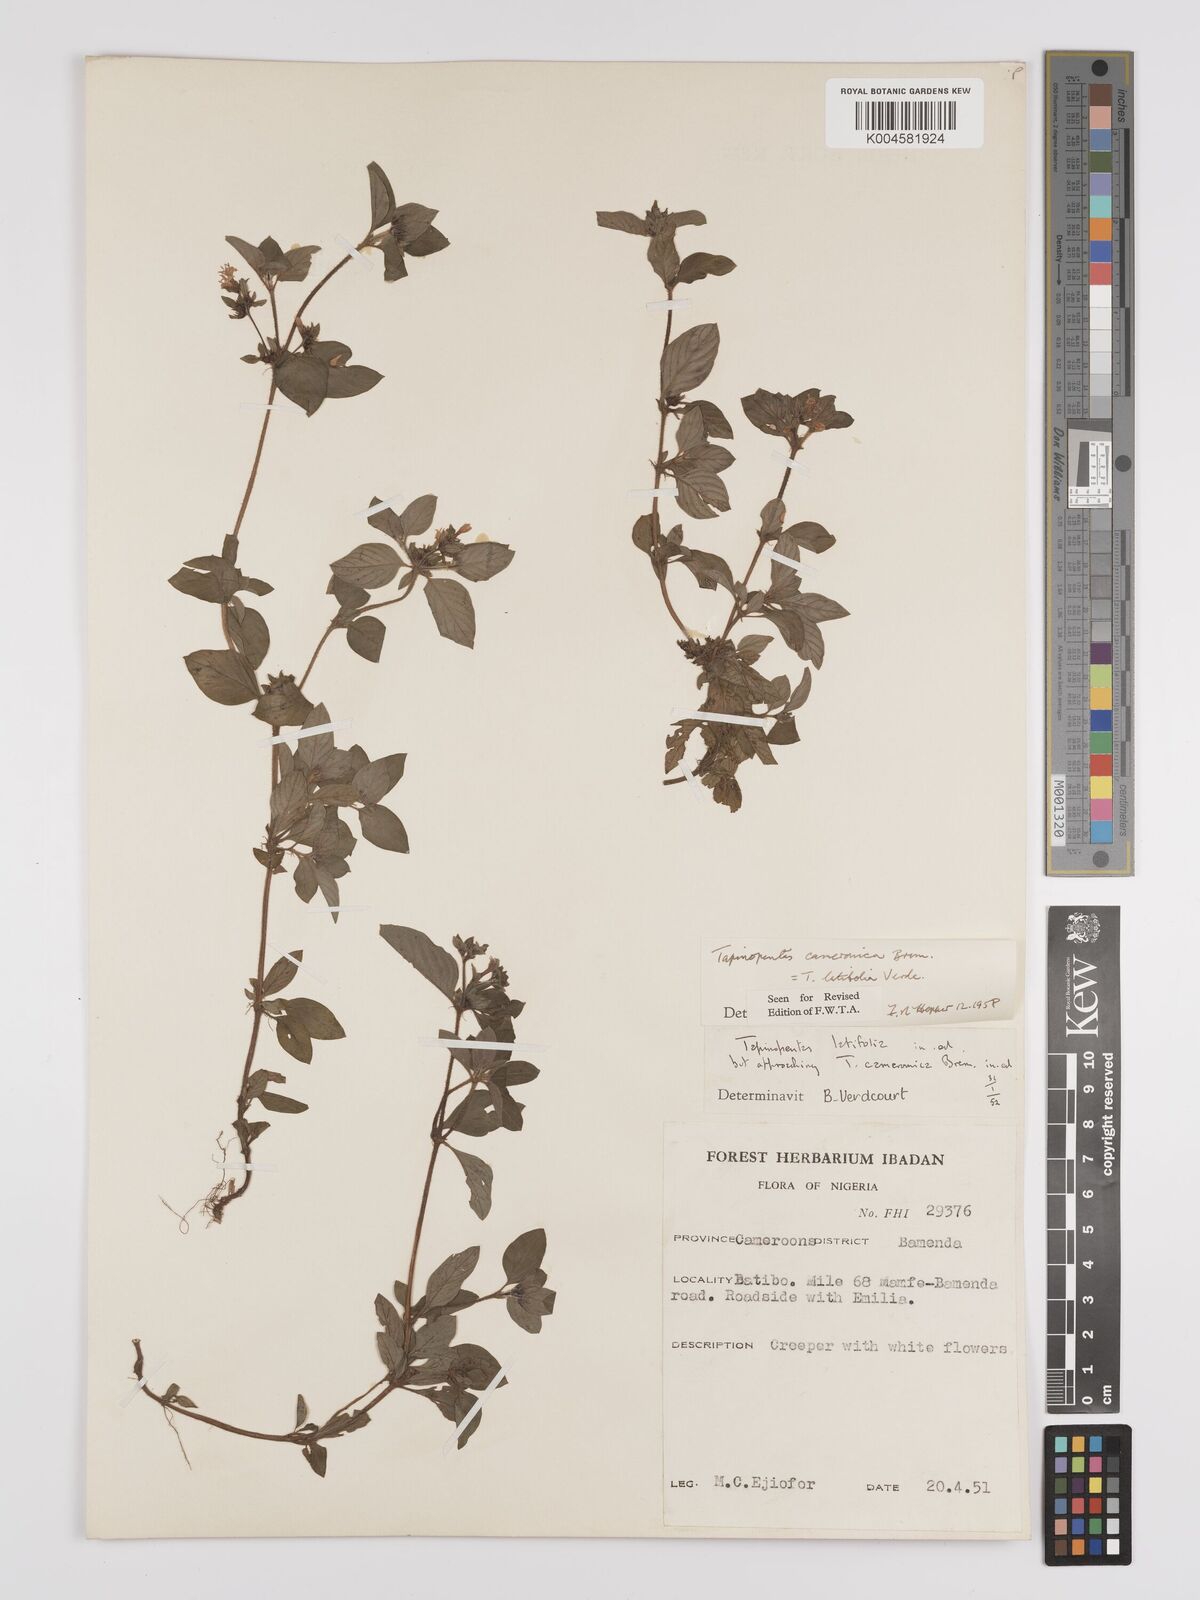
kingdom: Plantae
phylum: Tracheophyta
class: Magnoliopsida
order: Gentianales
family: Rubiaceae
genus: Otomeria
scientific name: Otomeria cameronica
